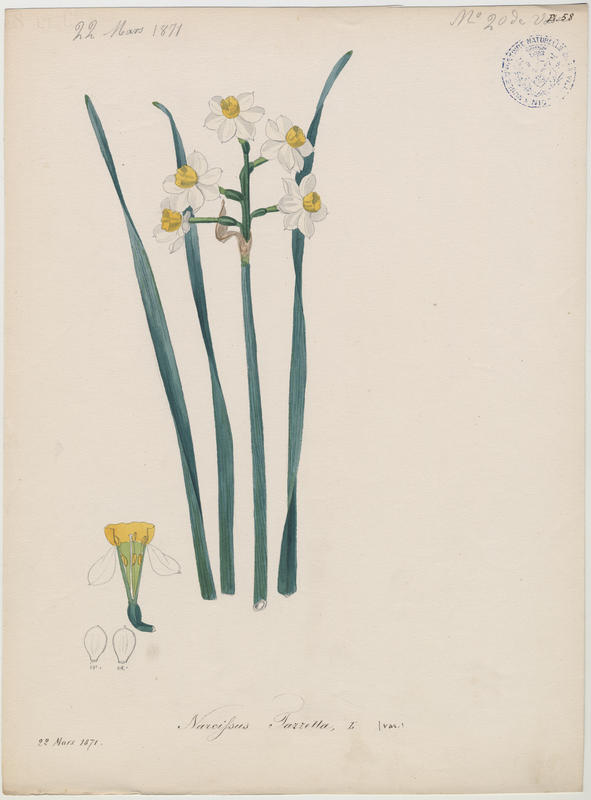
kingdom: Plantae
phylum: Tracheophyta
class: Liliopsida
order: Asparagales
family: Amaryllidaceae
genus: Narcissus
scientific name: Narcissus tazetta
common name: Bunch-flowered daffodil
